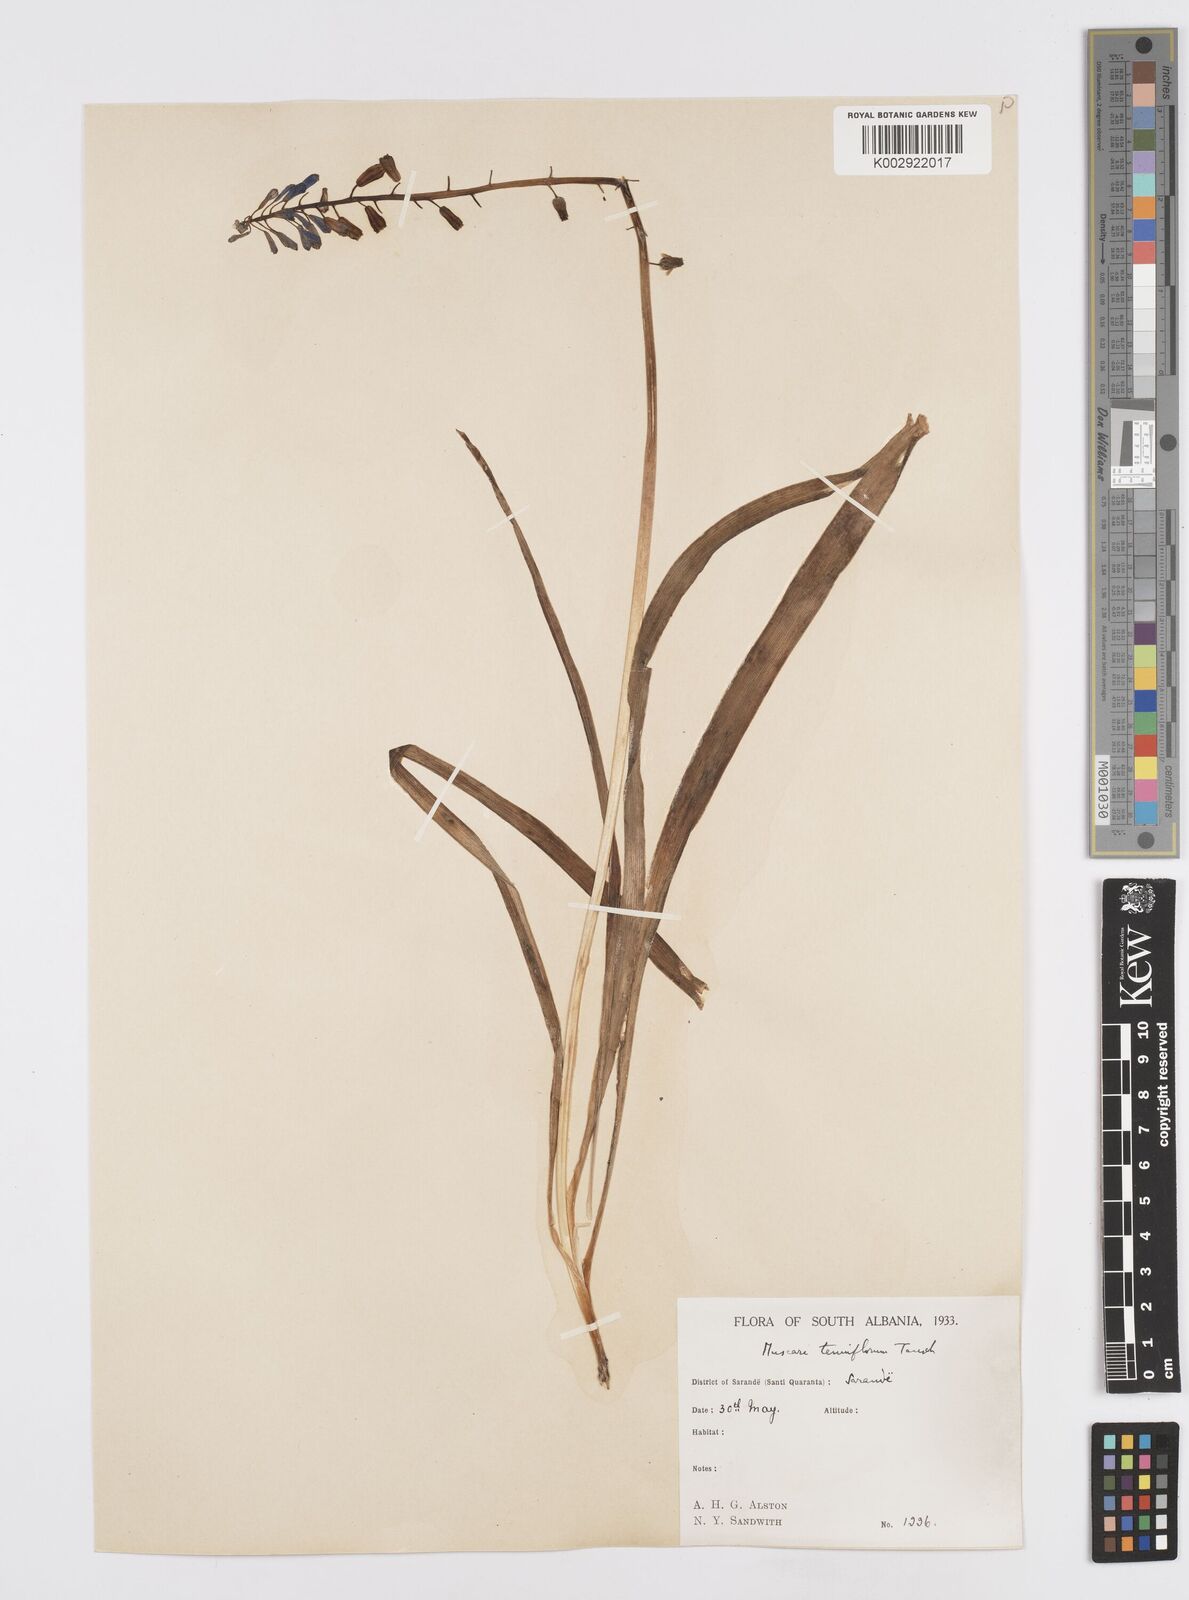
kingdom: Plantae
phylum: Tracheophyta
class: Liliopsida
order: Asparagales
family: Asparagaceae
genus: Muscari
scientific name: Muscari tenuiflorum
